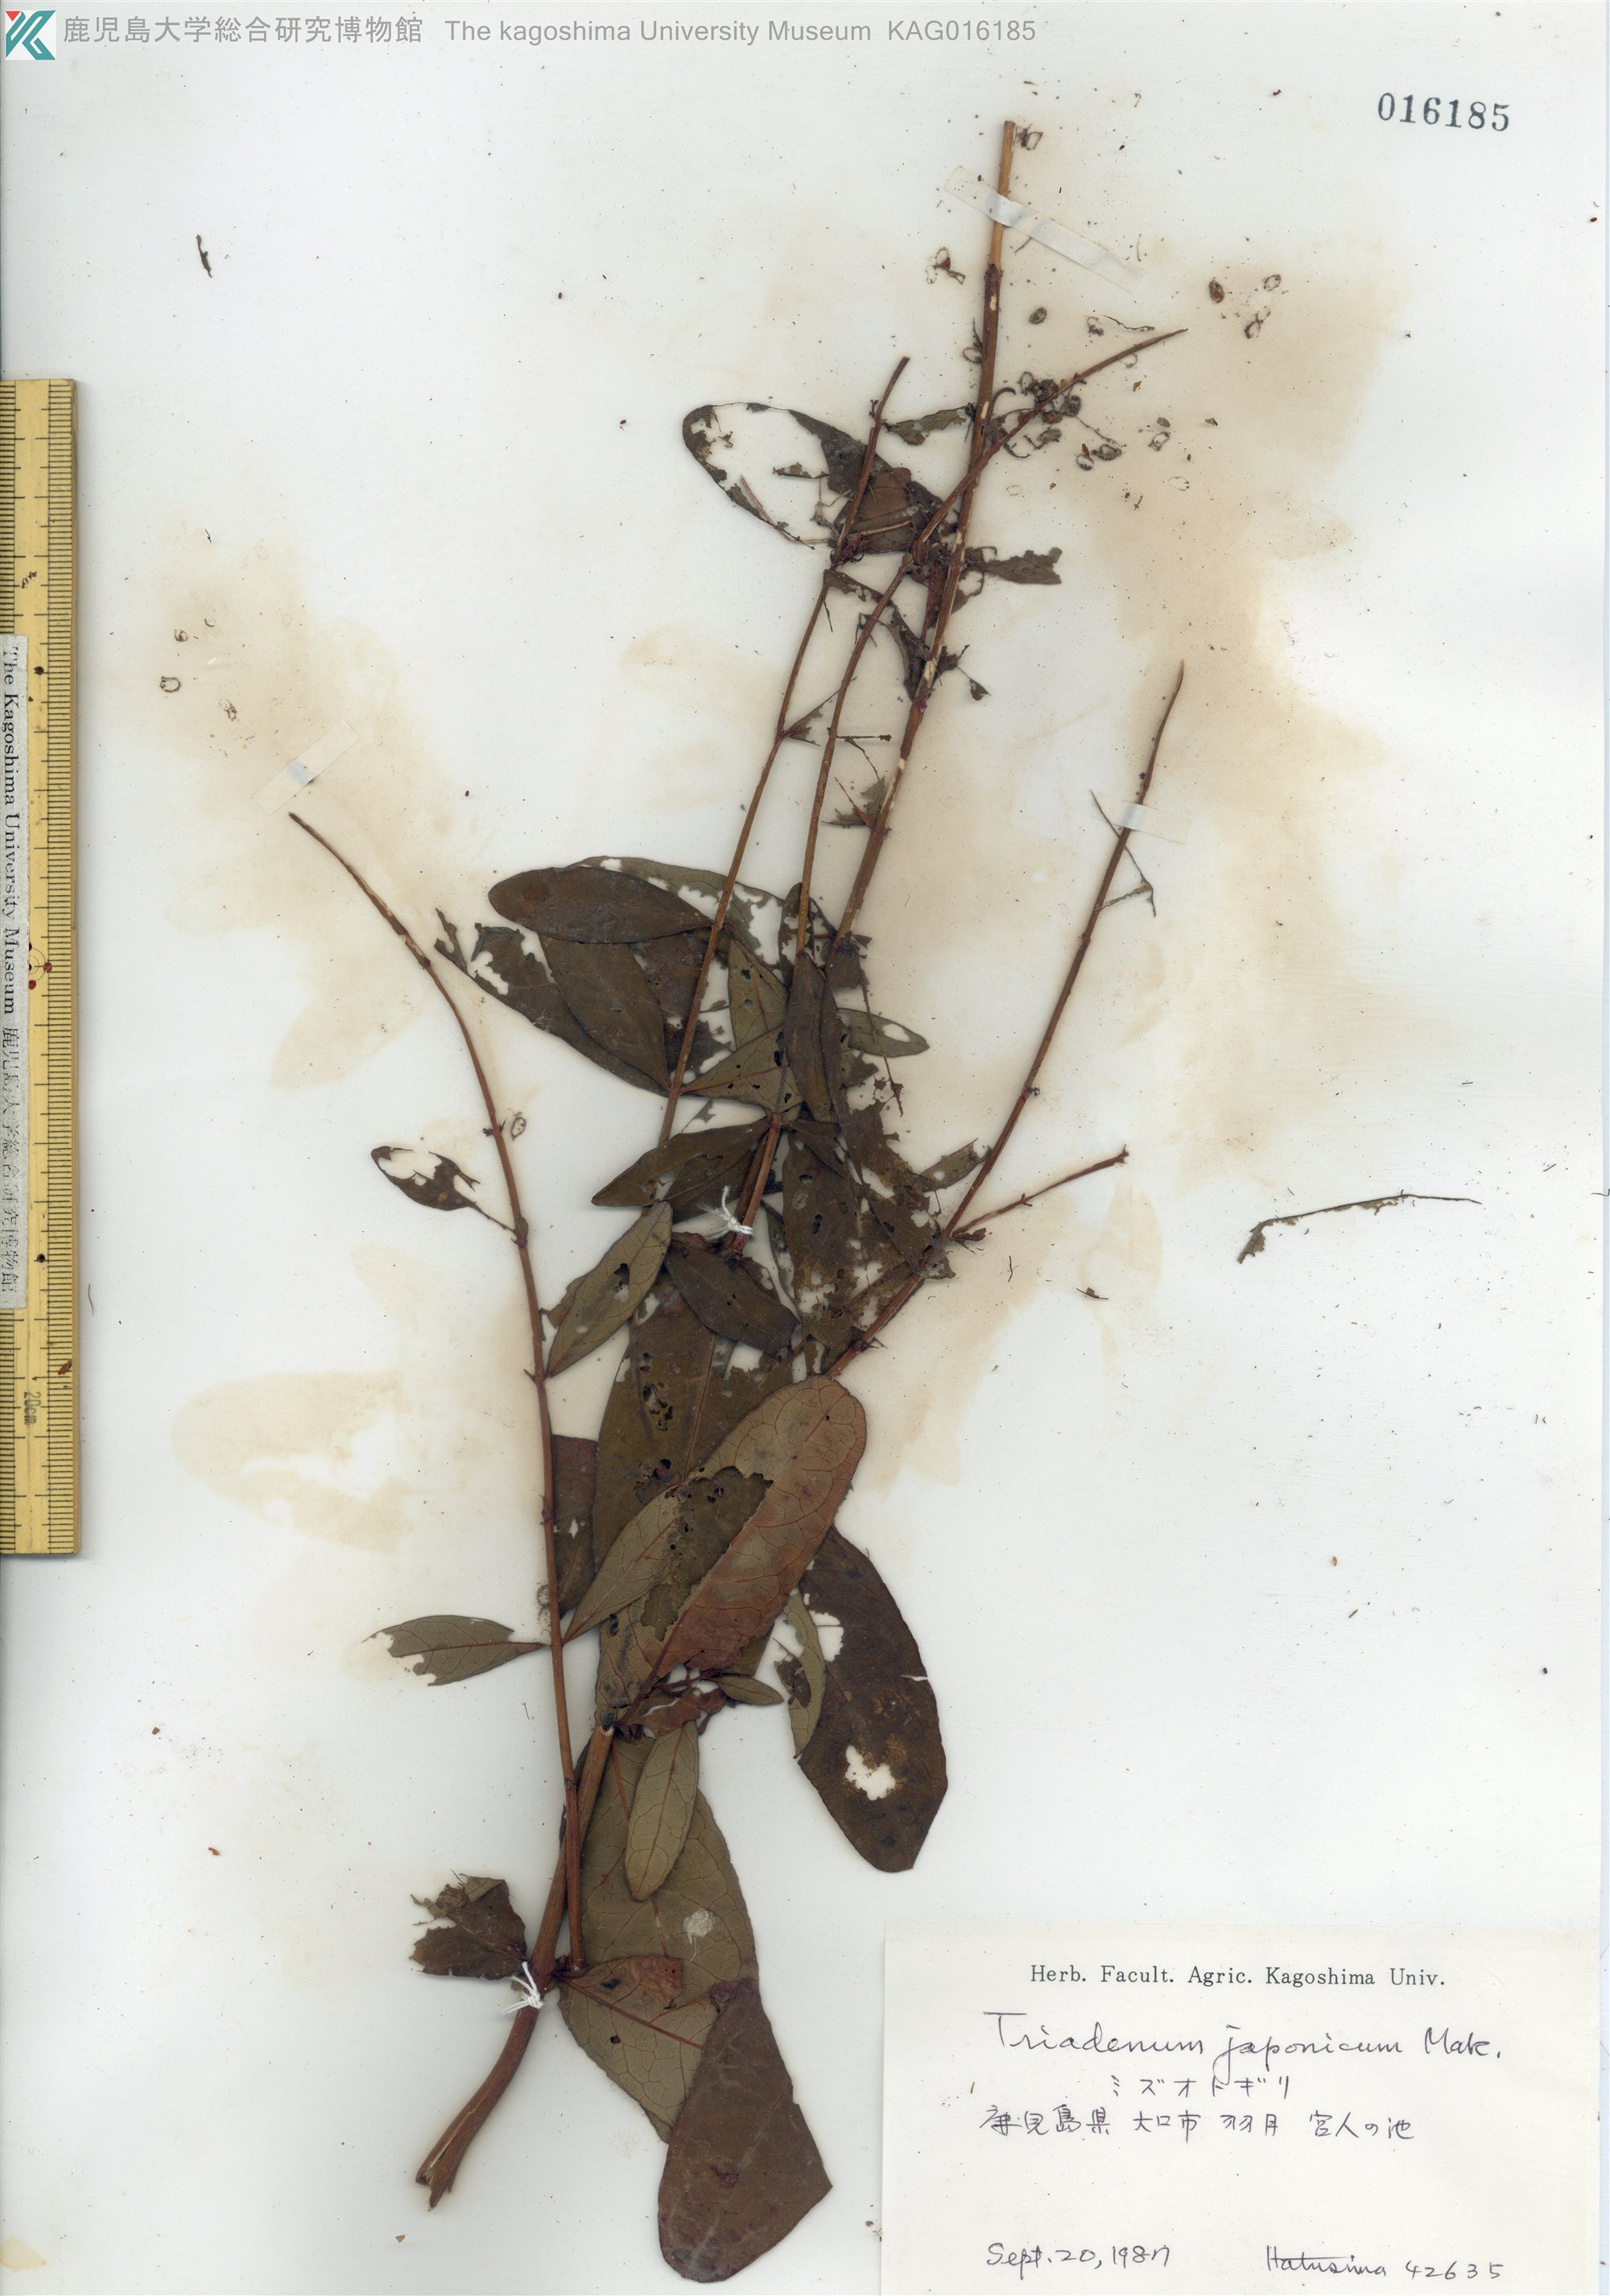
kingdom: Plantae
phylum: Tracheophyta
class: Magnoliopsida
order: Malpighiales
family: Hypericaceae
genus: Triadenum
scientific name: Triadenum japonicum
